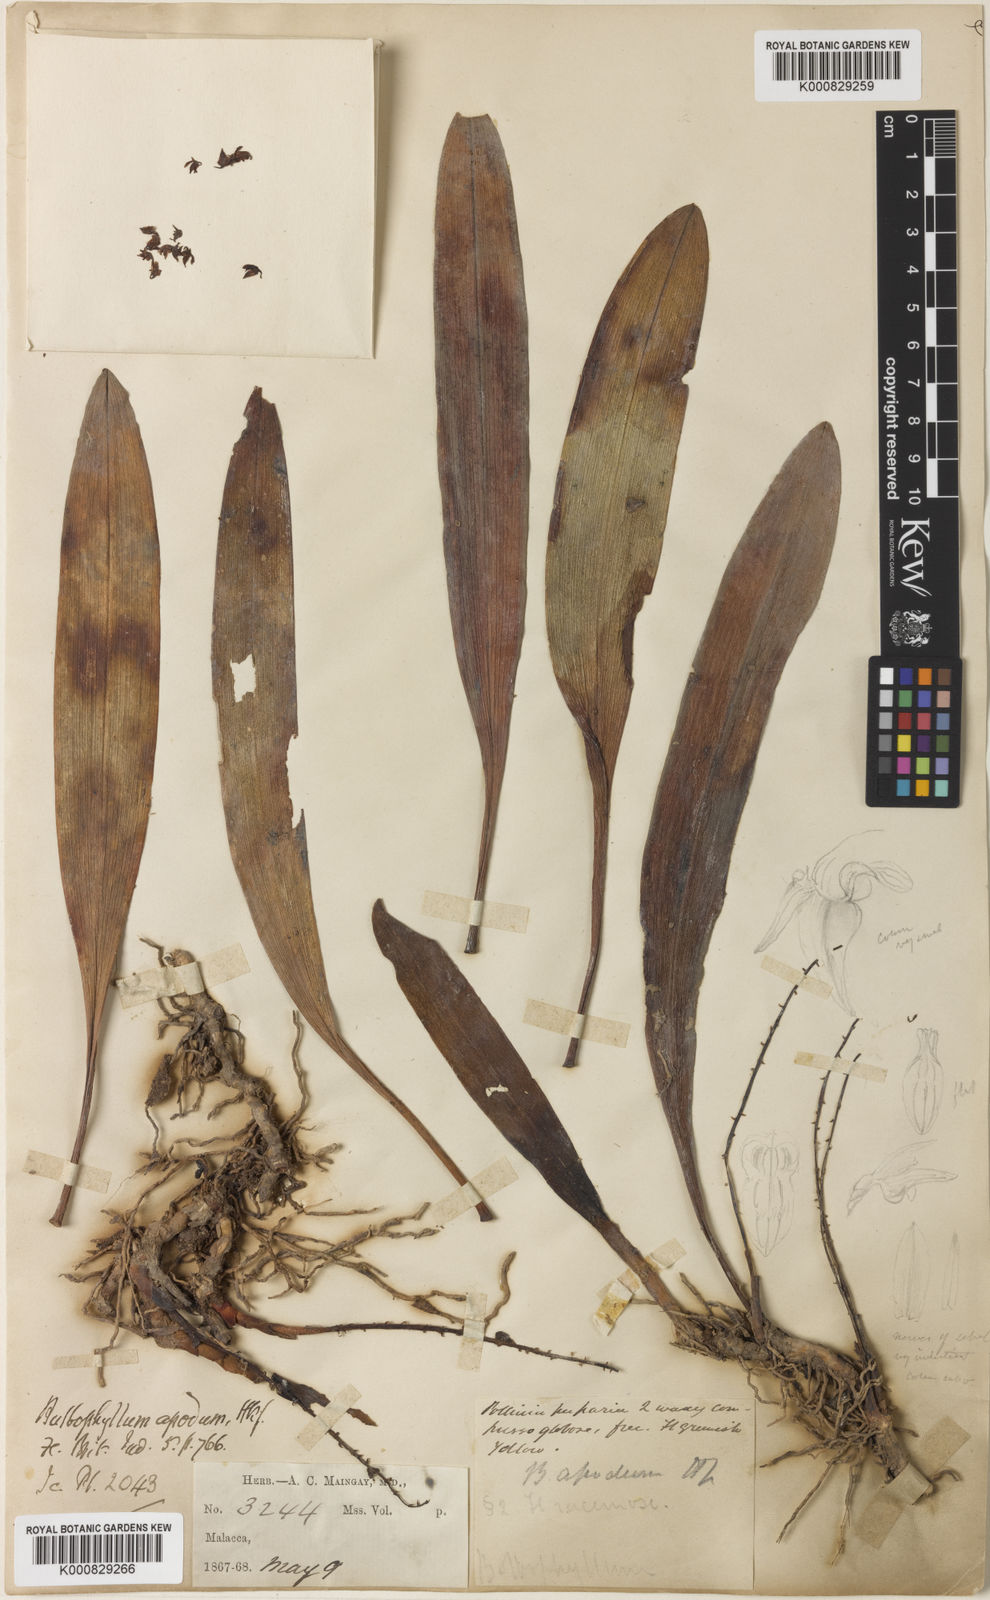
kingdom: Plantae
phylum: Tracheophyta
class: Liliopsida
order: Asparagales
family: Orchidaceae
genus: Bulbophyllum
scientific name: Bulbophyllum apodum
